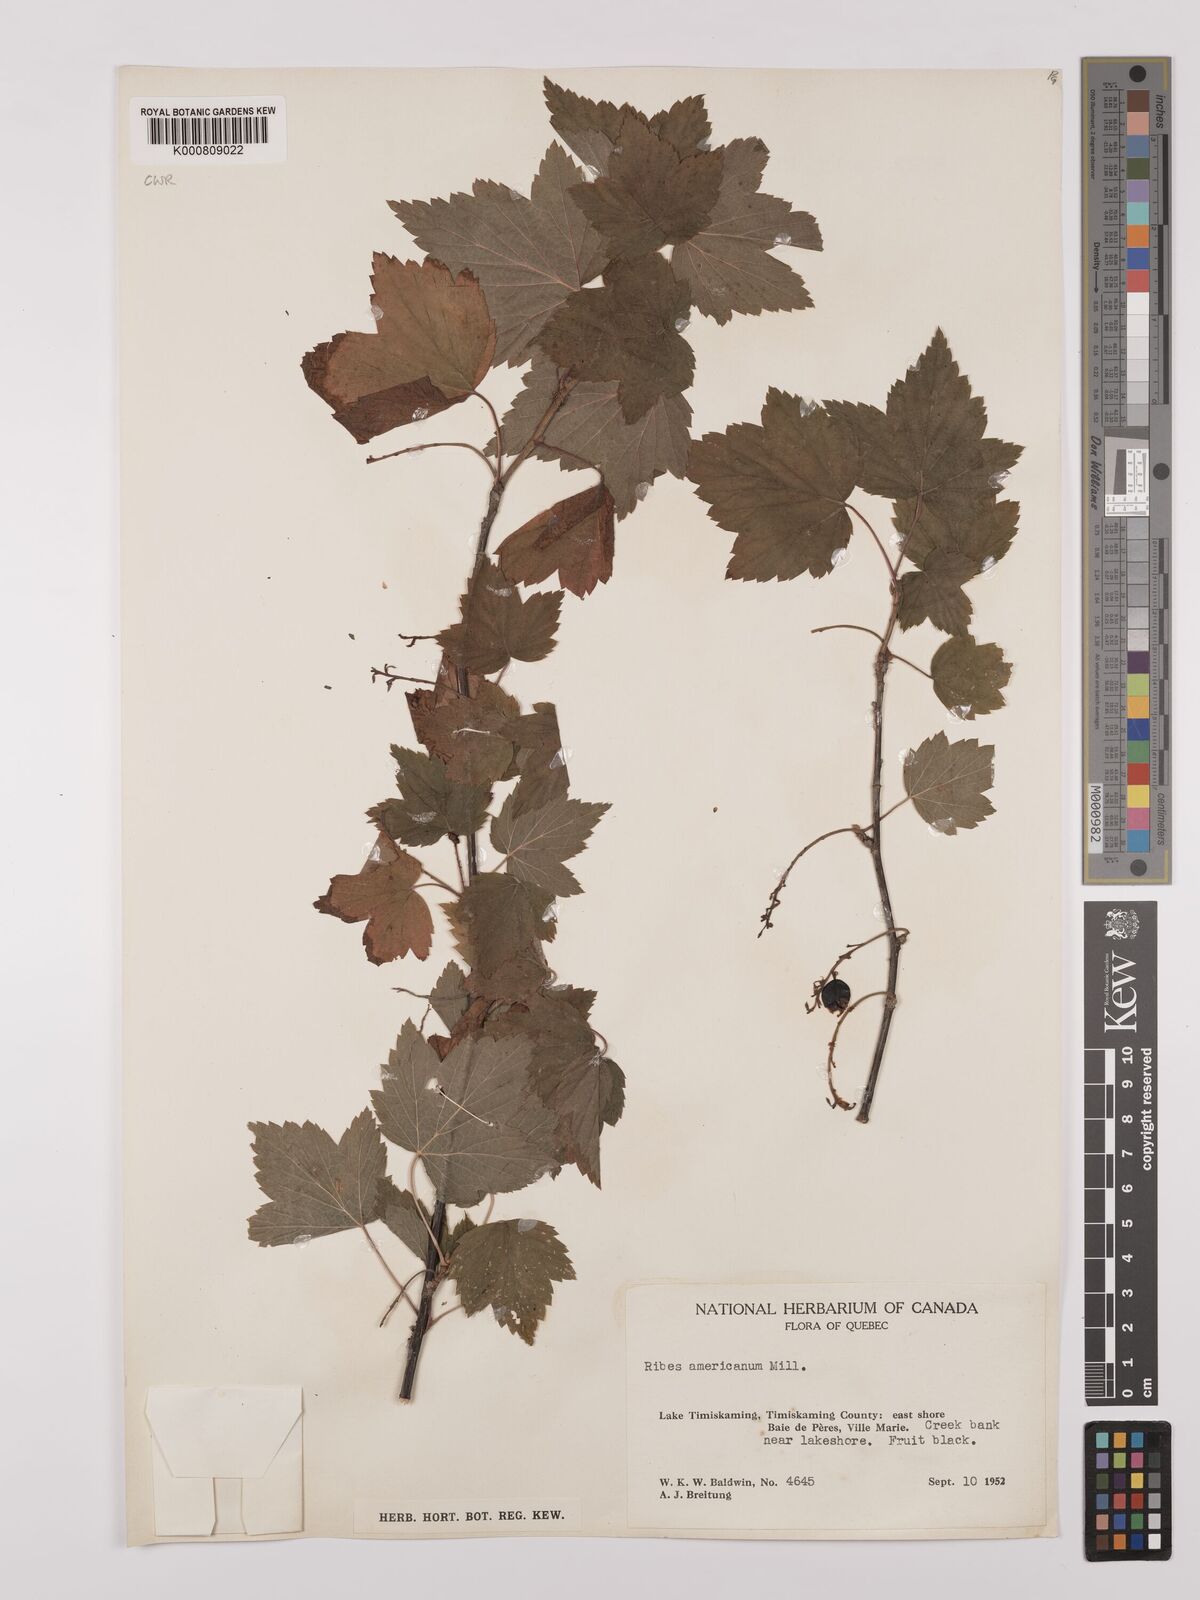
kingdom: Plantae
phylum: Tracheophyta
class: Magnoliopsida
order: Saxifragales
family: Grossulariaceae
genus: Ribes
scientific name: Ribes americanum
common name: American black currant
